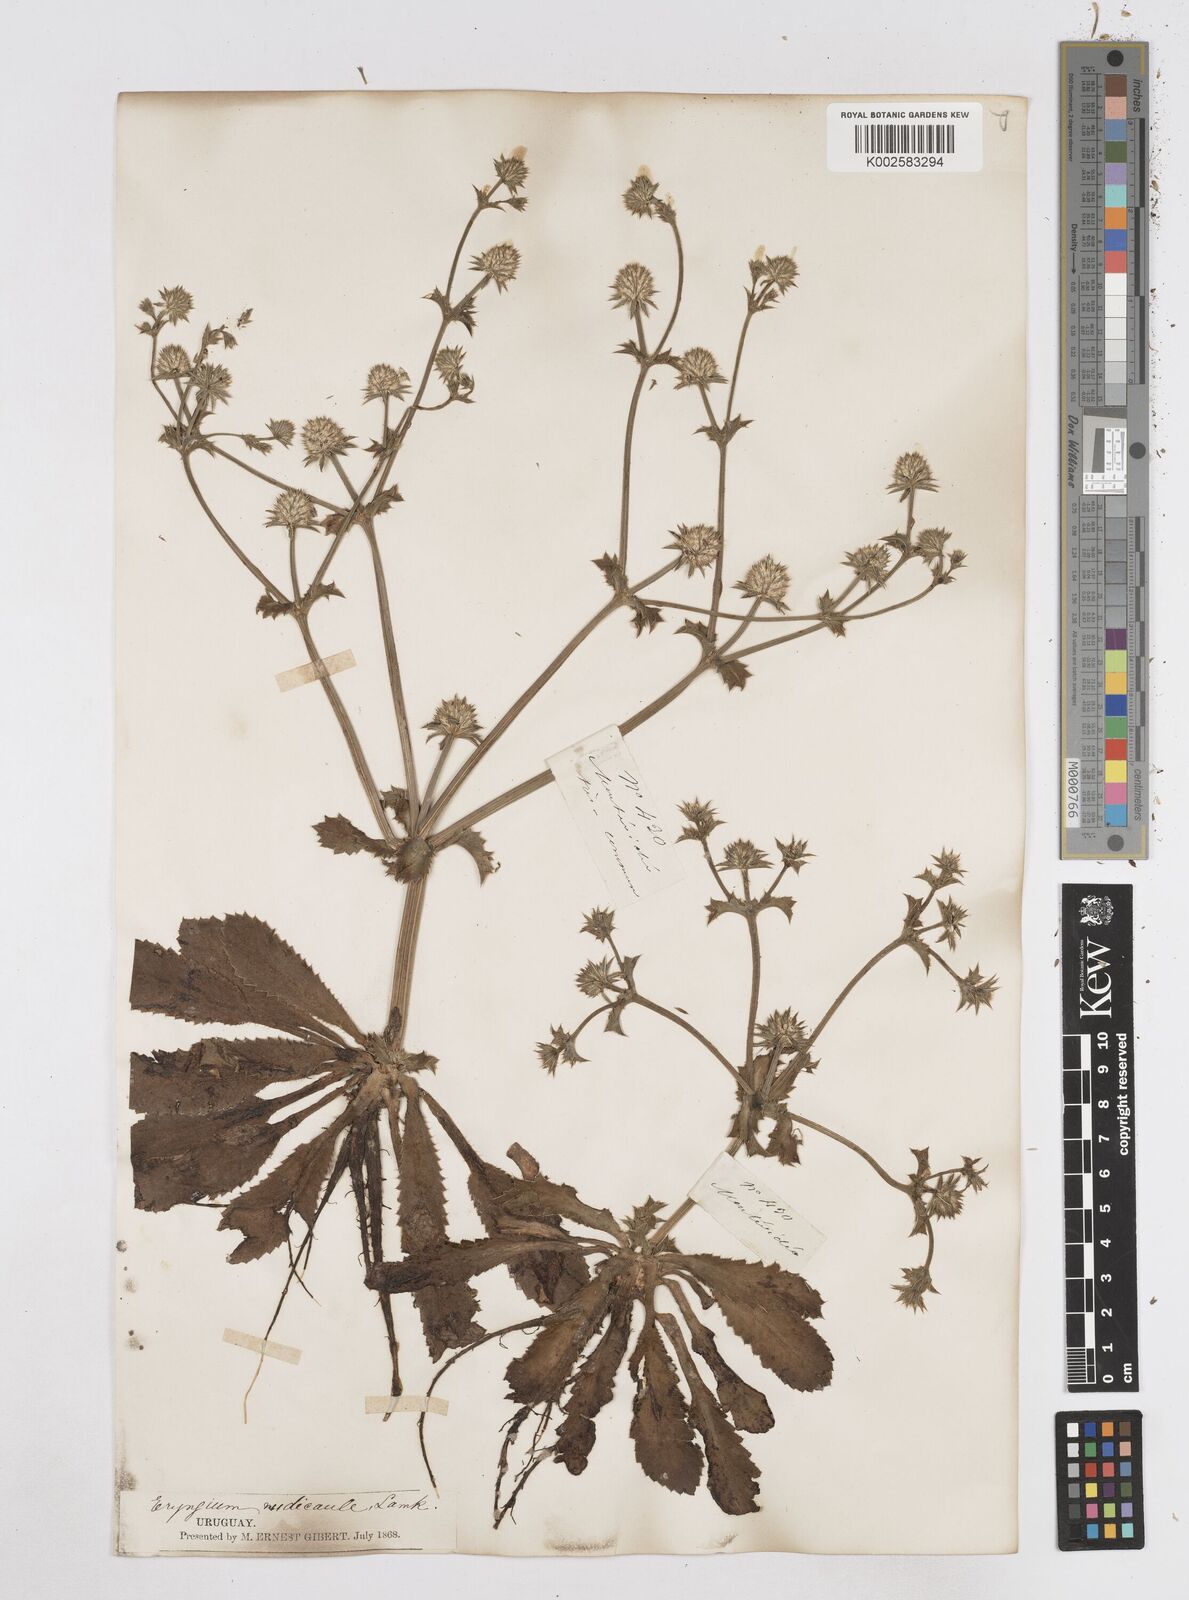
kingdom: Plantae
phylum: Tracheophyta
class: Magnoliopsida
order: Apiales
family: Apiaceae
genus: Eryngium
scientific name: Eryngium nudicaule
